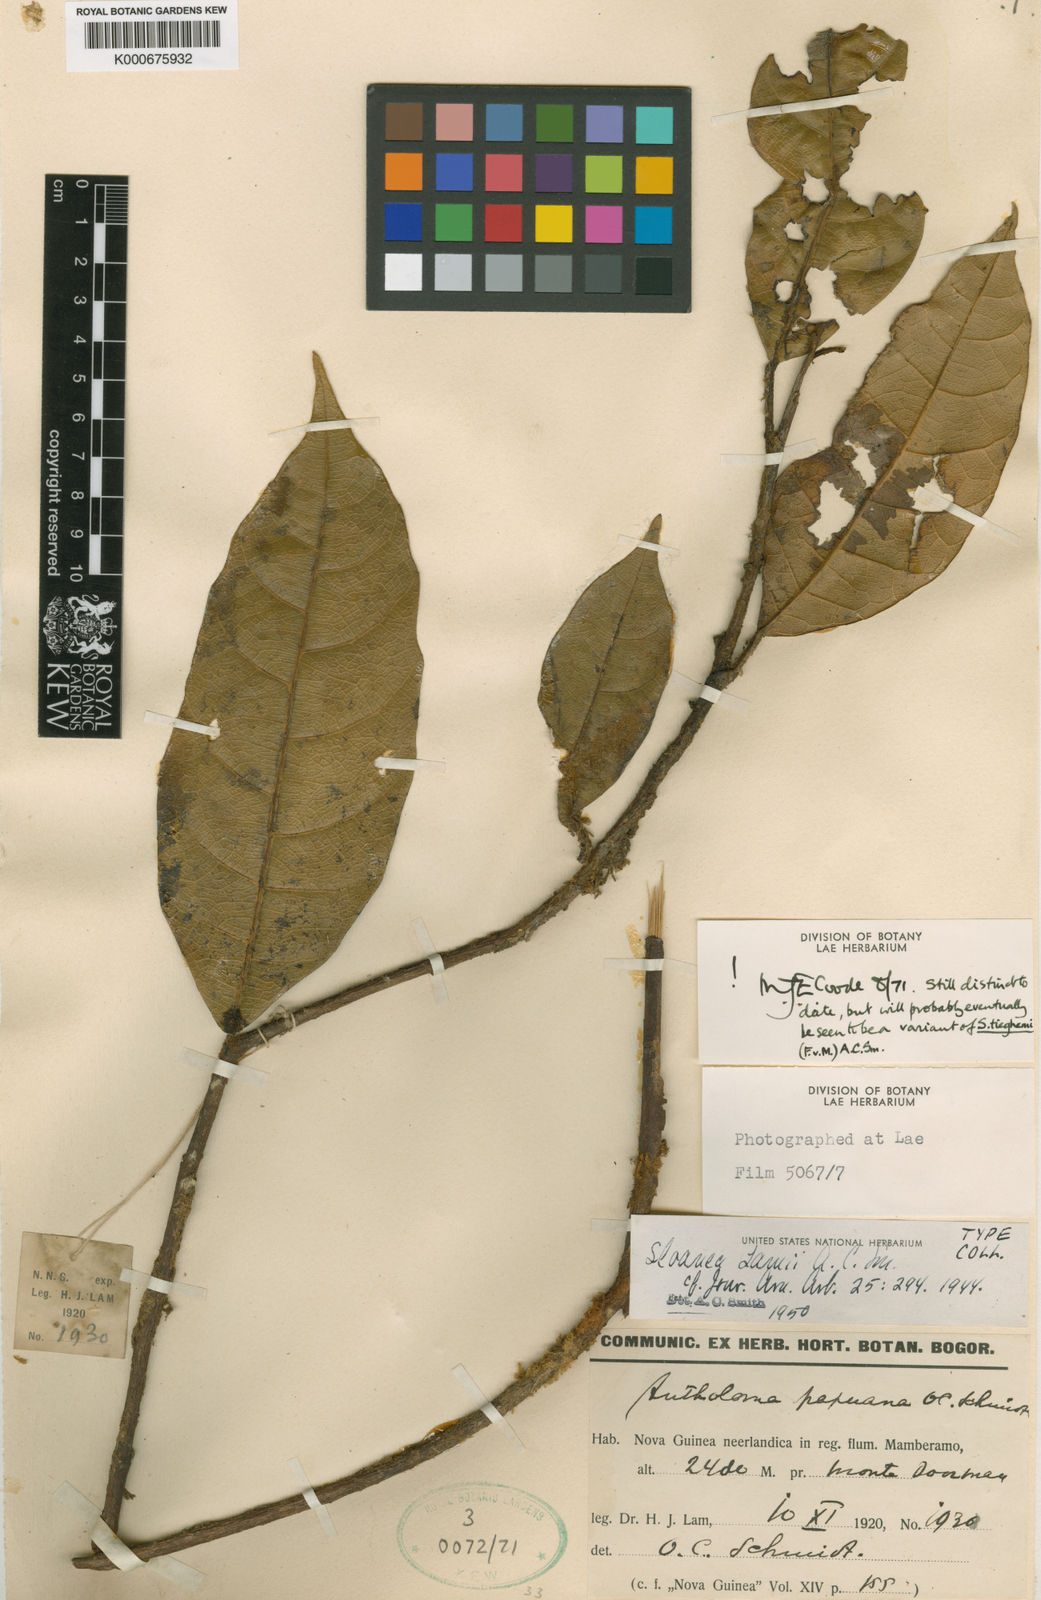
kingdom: Plantae
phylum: Tracheophyta
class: Magnoliopsida
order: Oxalidales
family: Elaeocarpaceae
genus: Sloanea
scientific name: Sloanea lamii
